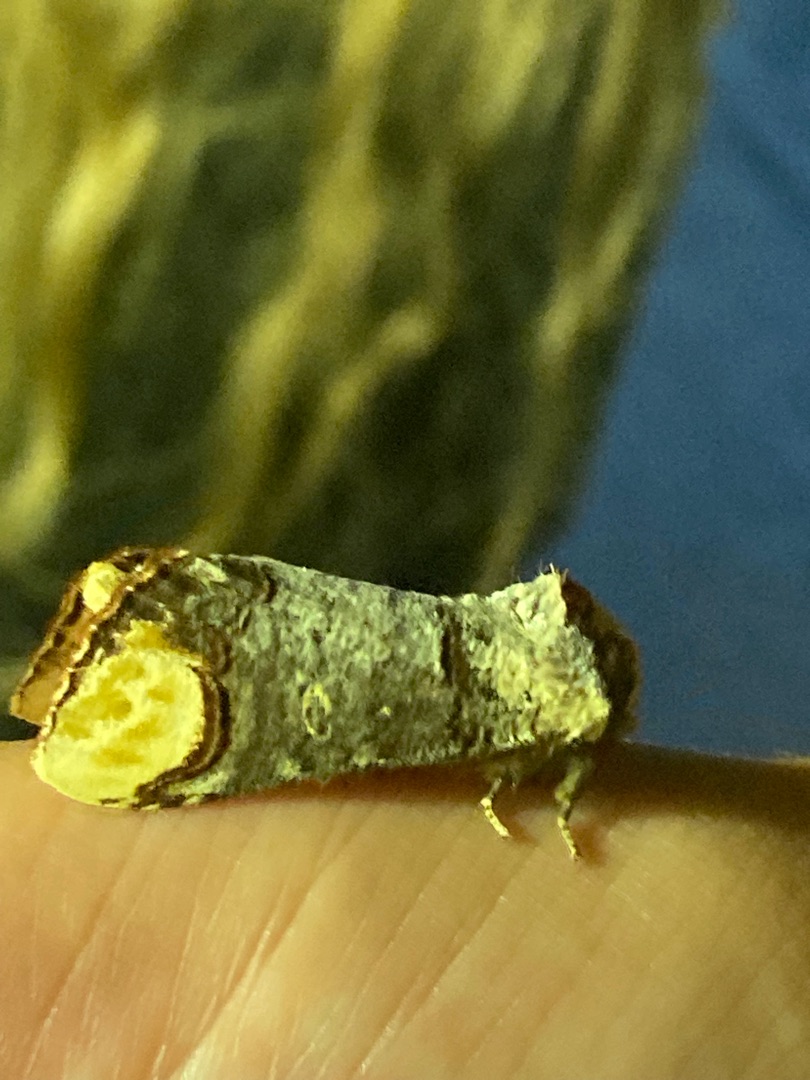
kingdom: Animalia
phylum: Arthropoda
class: Insecta
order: Lepidoptera
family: Notodontidae
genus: Phalera
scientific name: Phalera bucephala
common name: Måneplet
